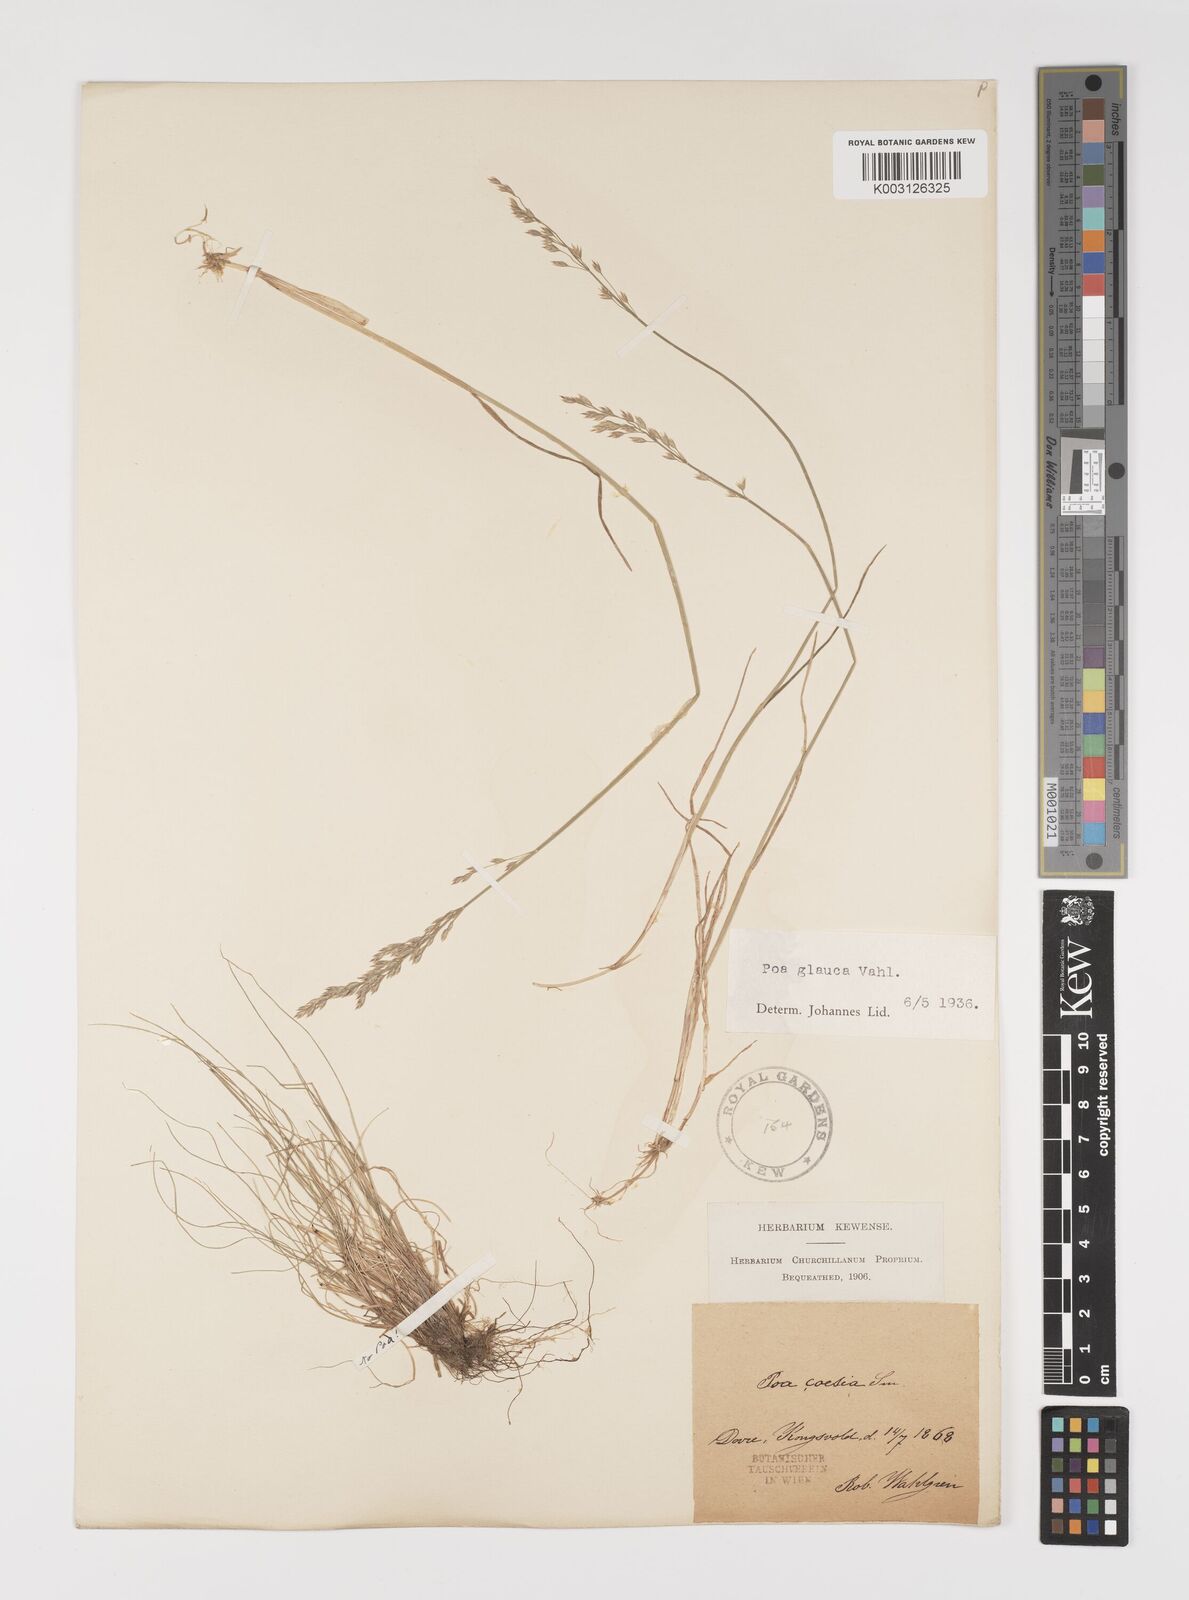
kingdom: Plantae
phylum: Tracheophyta
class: Liliopsida
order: Poales
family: Poaceae
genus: Poa
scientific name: Poa glauca
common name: Glaucous bluegrass
